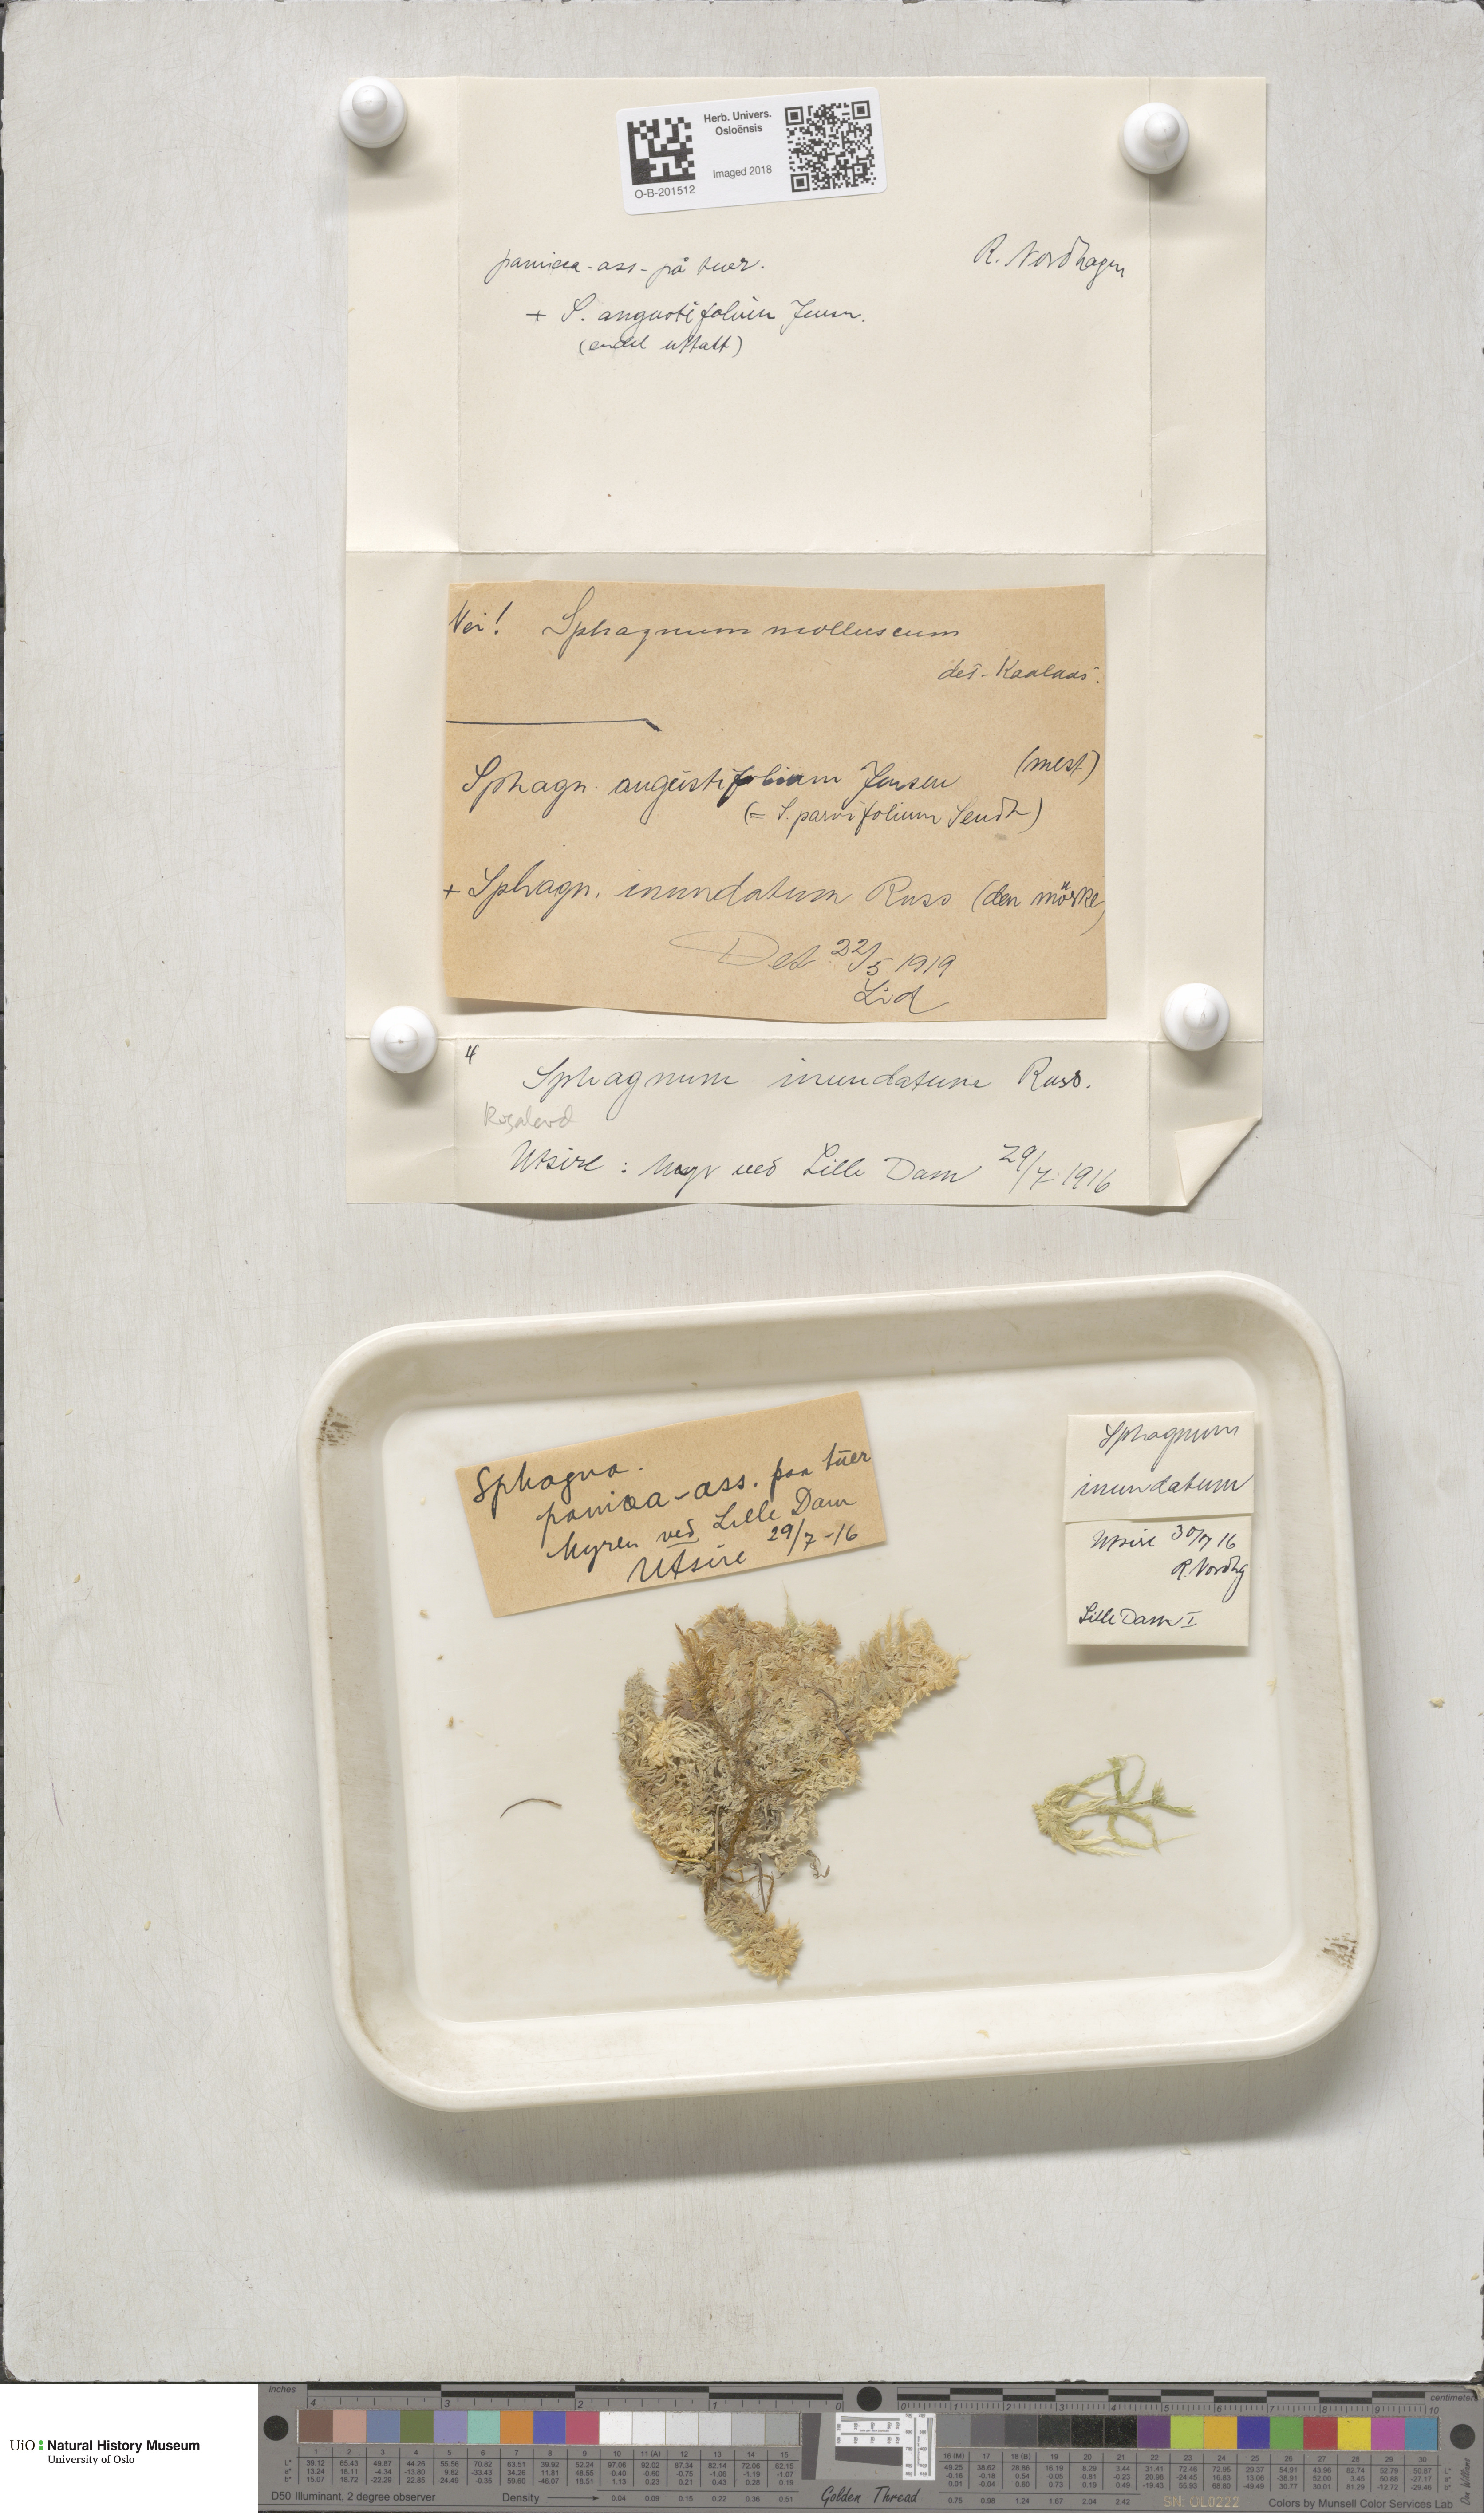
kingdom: Plantae
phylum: Bryophyta
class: Sphagnopsida
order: Sphagnales
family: Sphagnaceae
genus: Sphagnum
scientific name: Sphagnum inundatum
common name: Lesser cow-horn bog-moss
